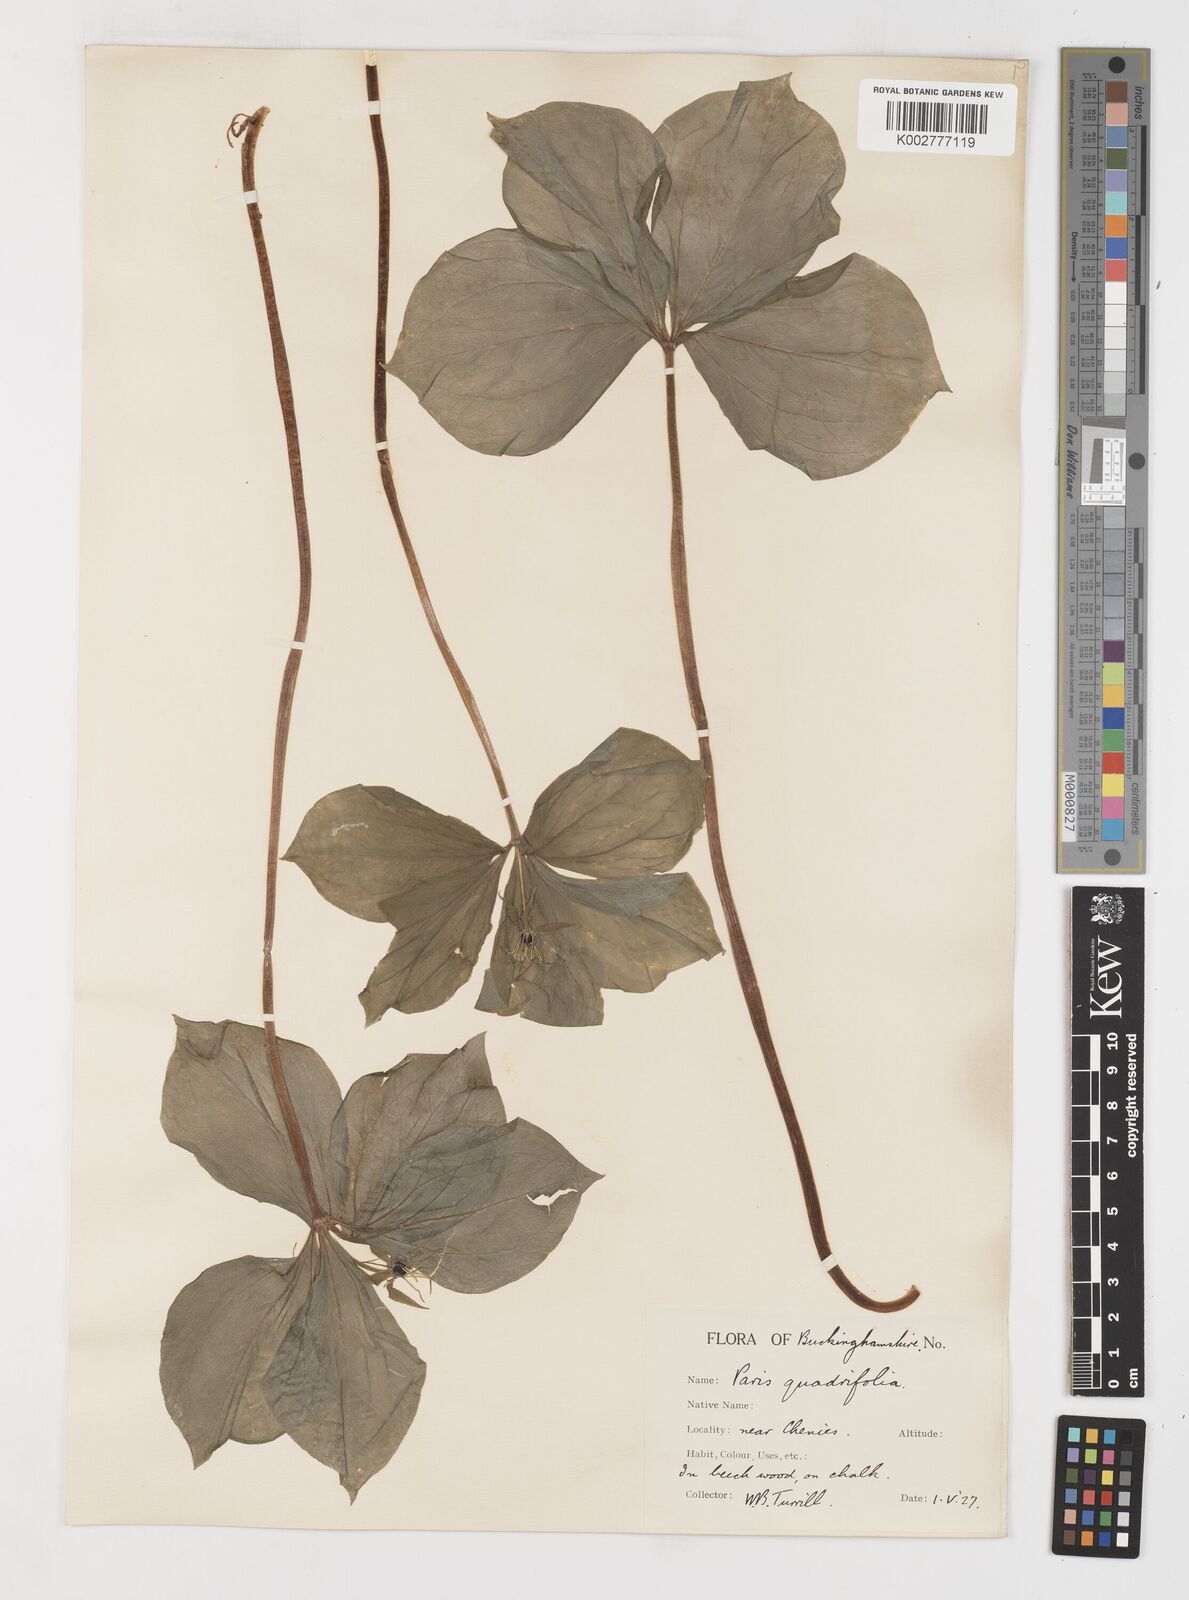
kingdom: Plantae
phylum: Tracheophyta
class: Liliopsida
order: Liliales
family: Melanthiaceae
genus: Paris
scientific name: Paris quadrifolia
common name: Herb-paris
